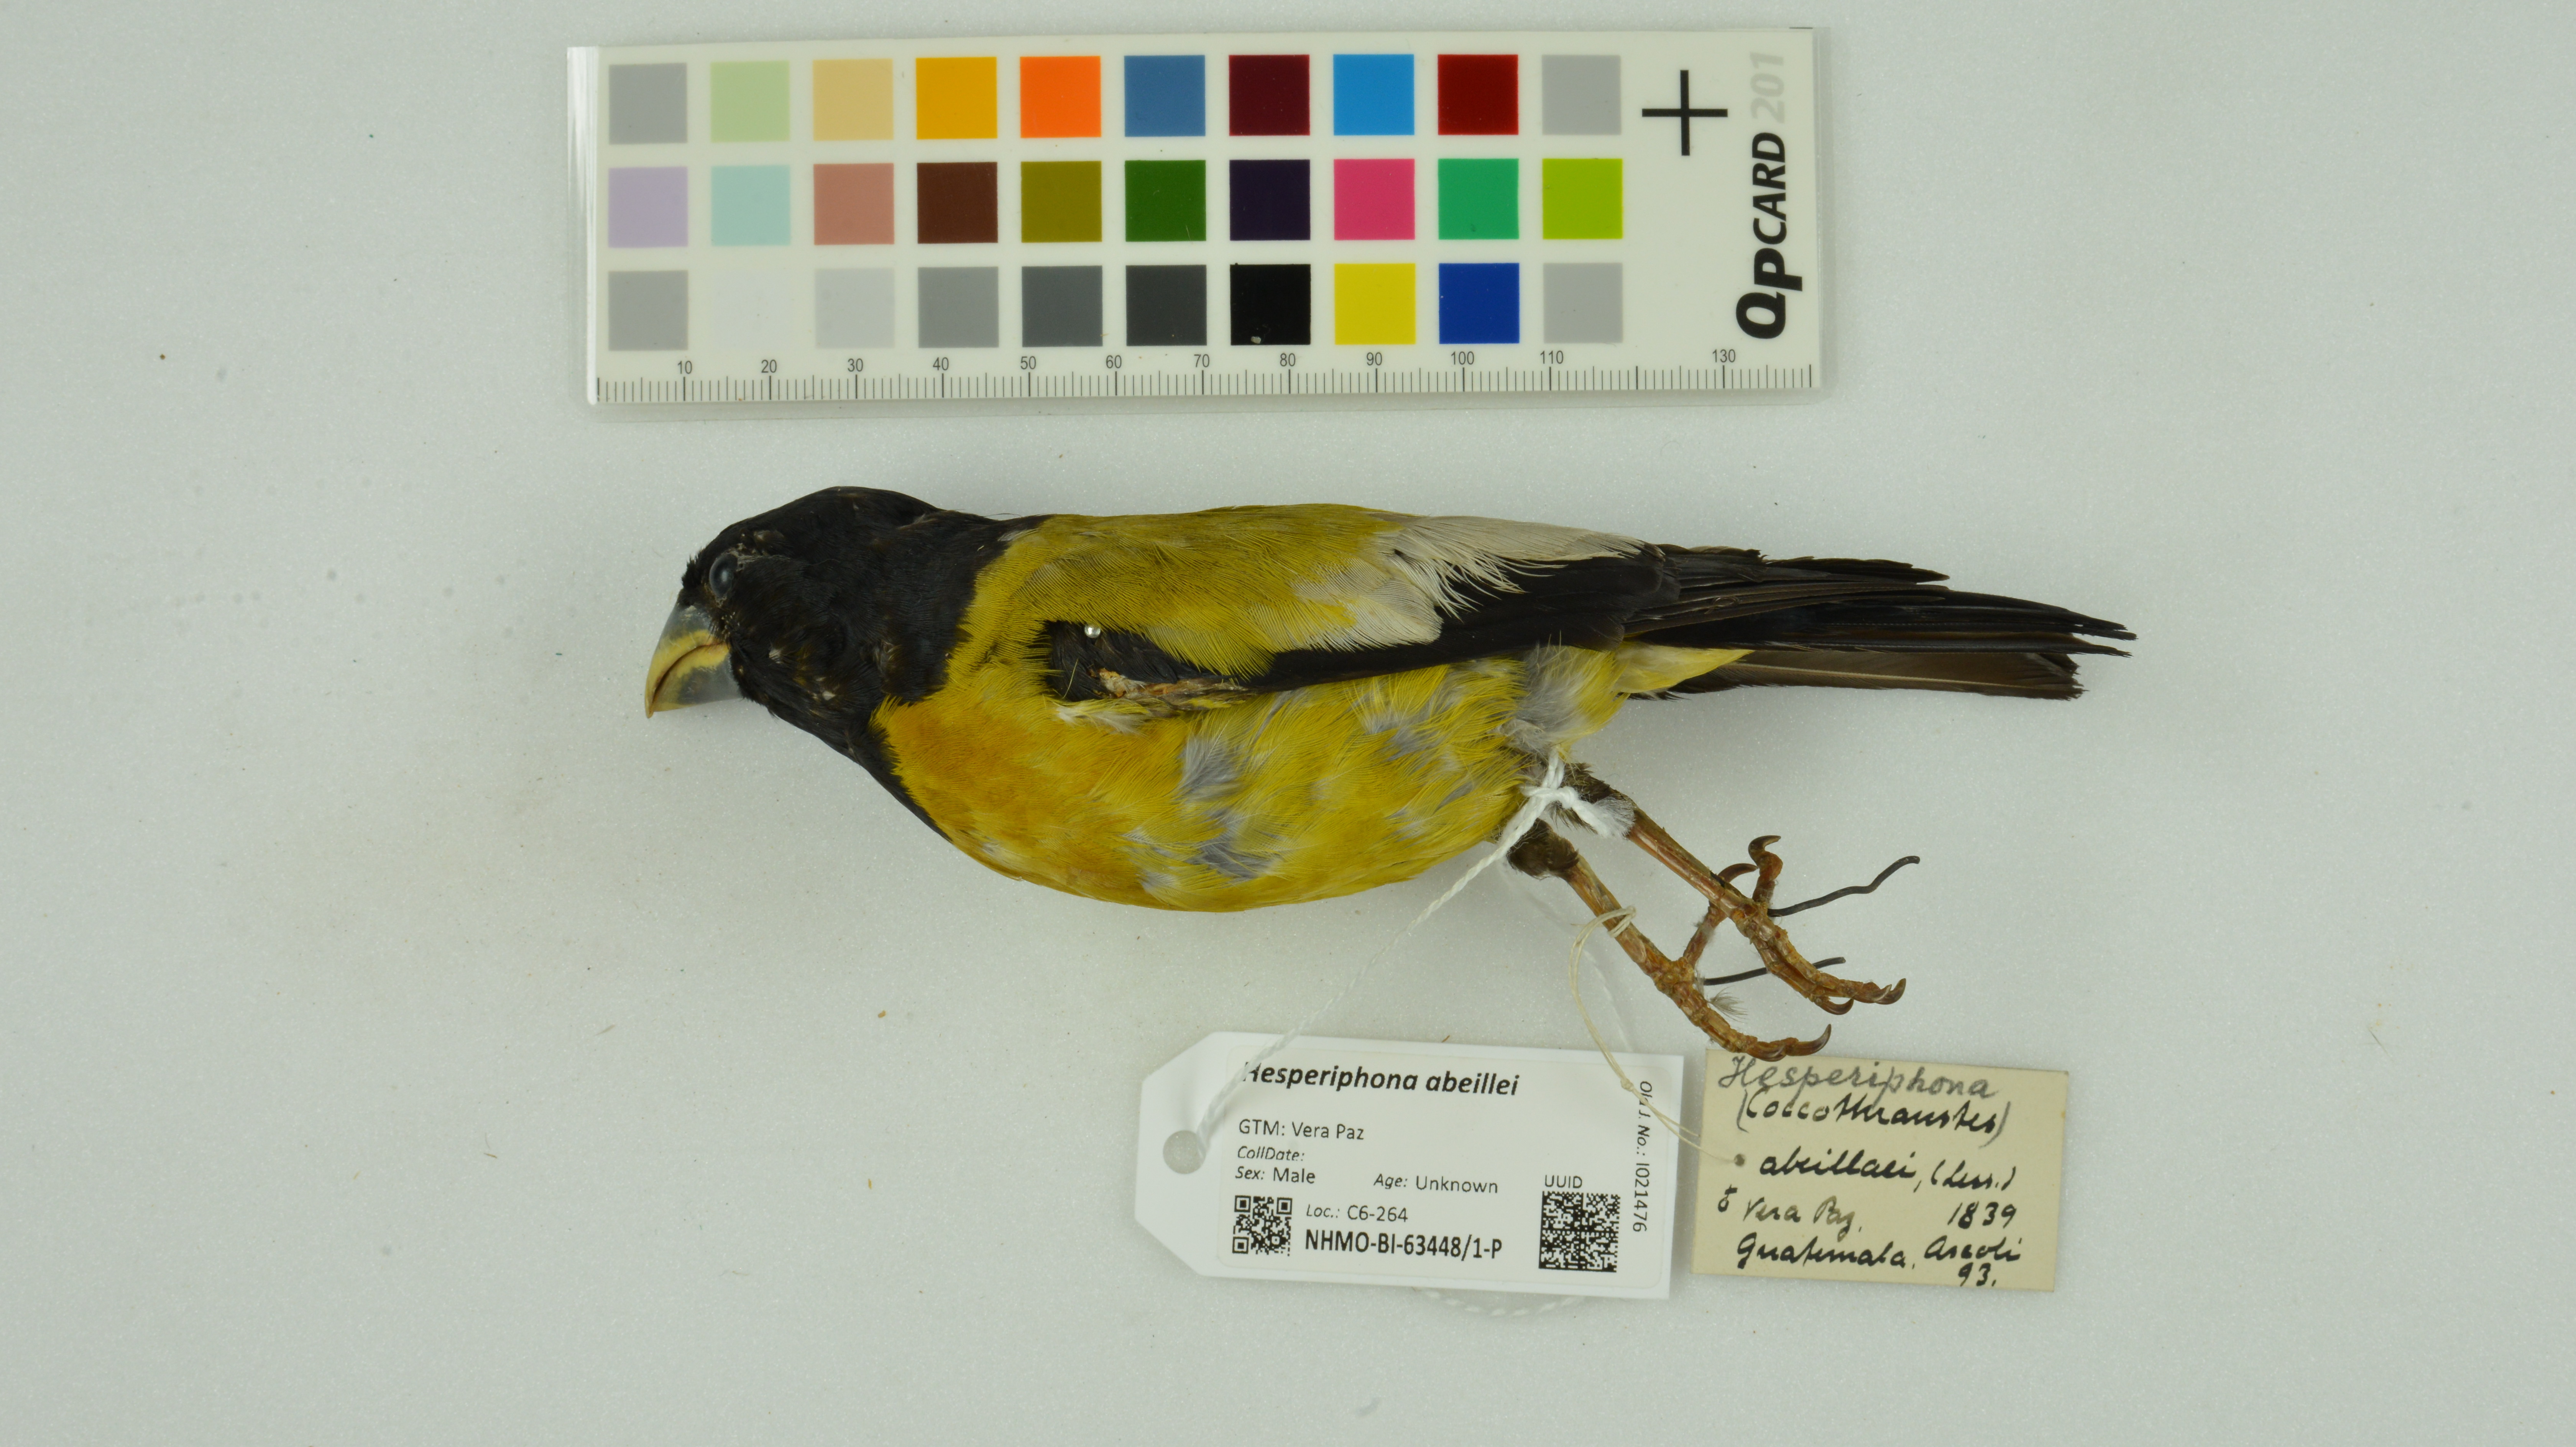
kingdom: Animalia
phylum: Chordata
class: Aves
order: Passeriformes
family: Fringillidae
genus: Hesperiphona
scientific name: Hesperiphona abeillei
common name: Hooded grosbeak
